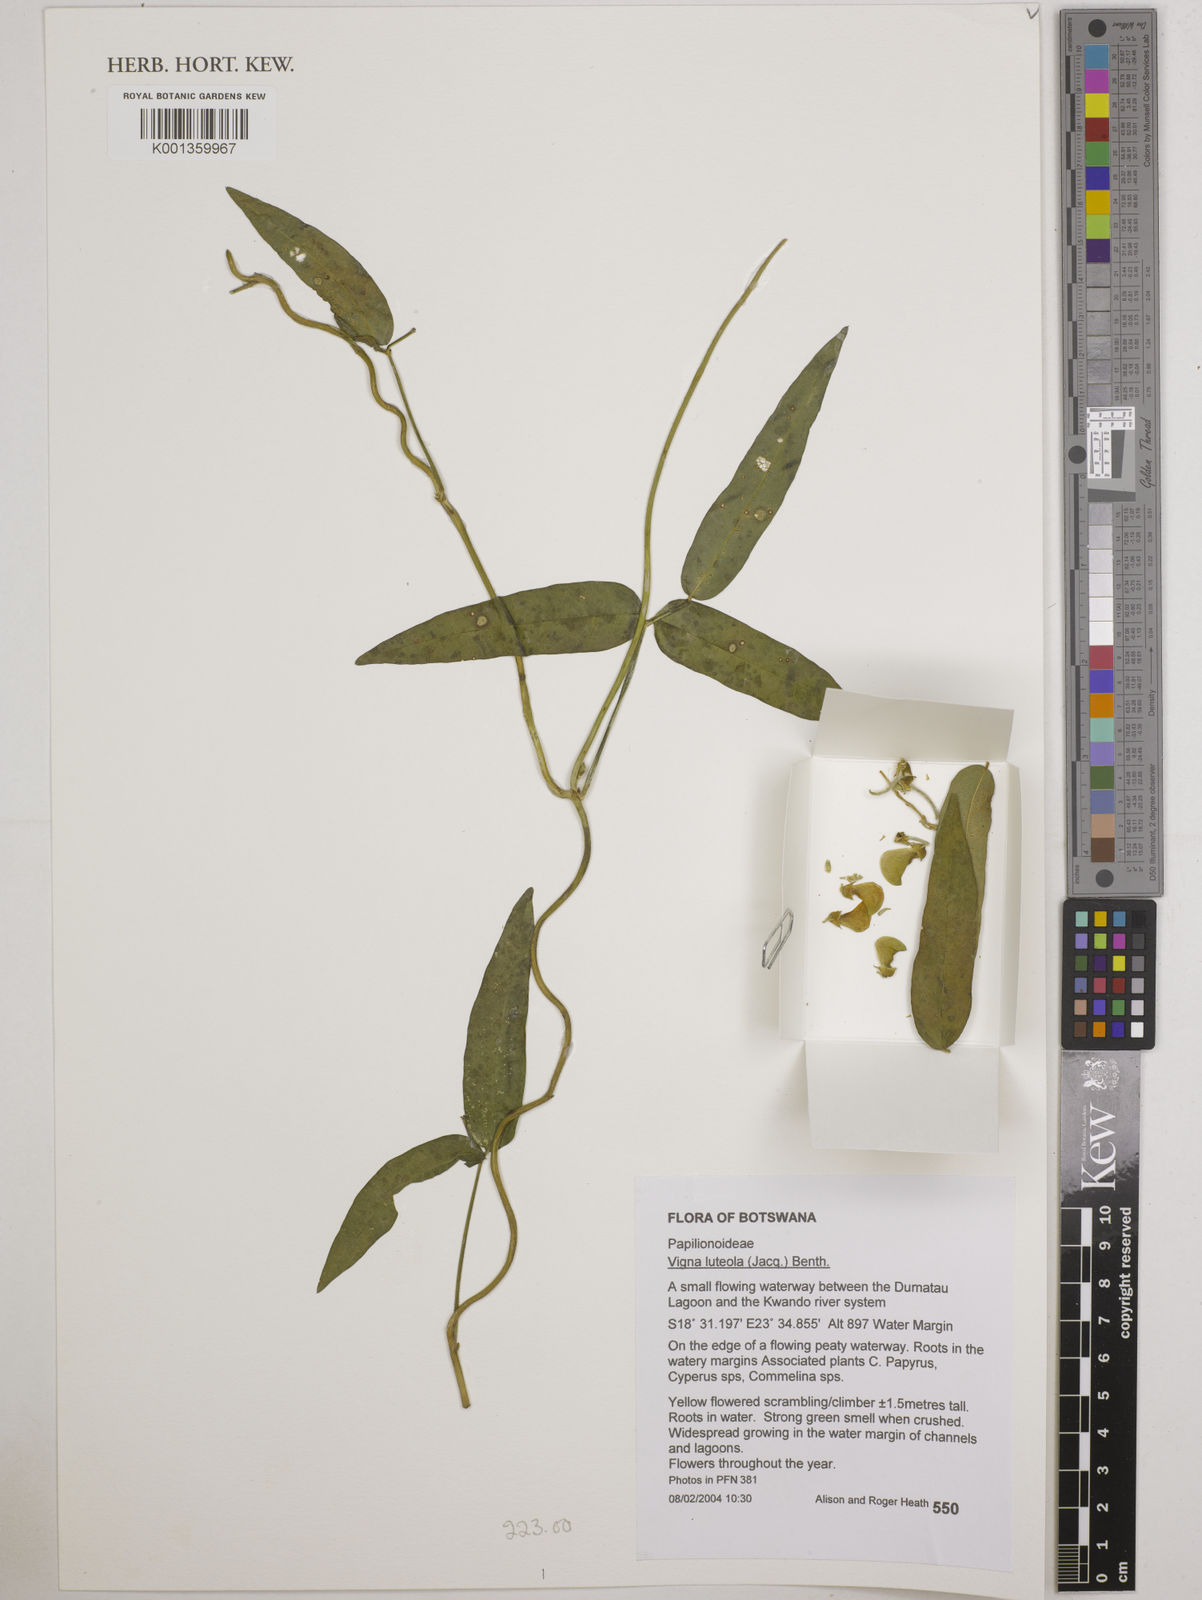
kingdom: Plantae
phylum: Tracheophyta
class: Magnoliopsida
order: Fabales
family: Fabaceae
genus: Vigna
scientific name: Vigna luteola
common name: Hairypod cowpea
